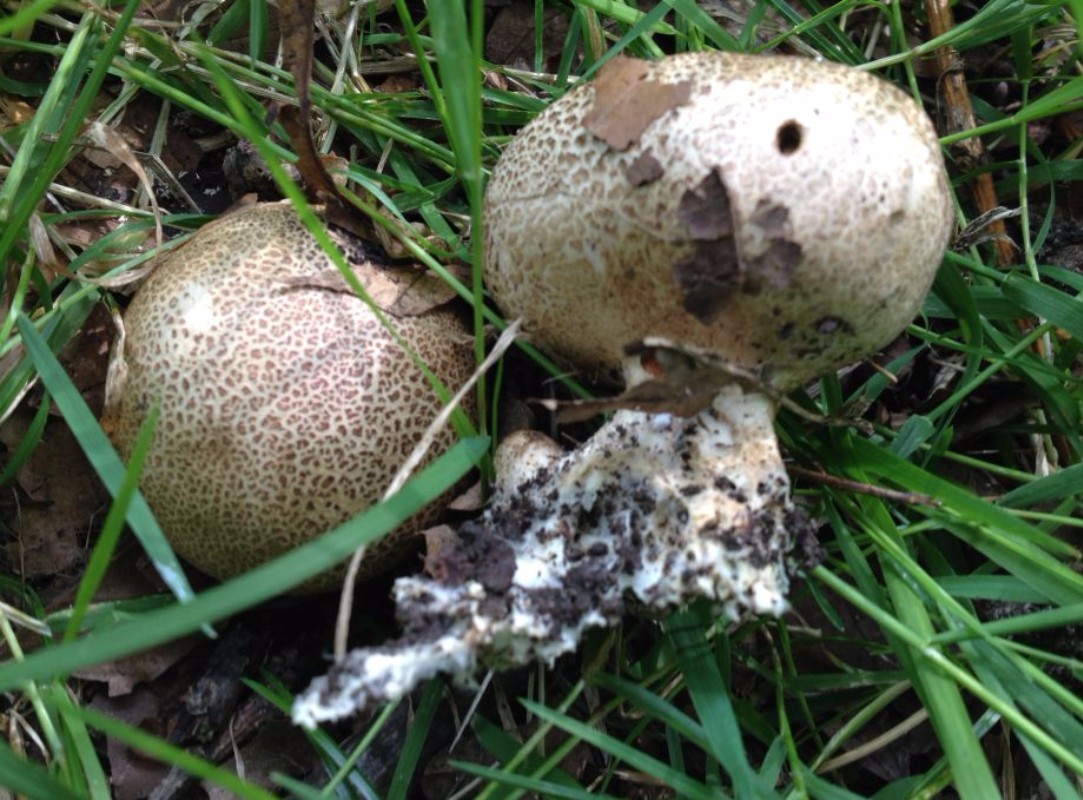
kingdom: Fungi
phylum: Basidiomycota
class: Agaricomycetes
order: Boletales
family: Sclerodermataceae
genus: Scleroderma
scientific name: Scleroderma verrucosum
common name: stilket bruskbold
